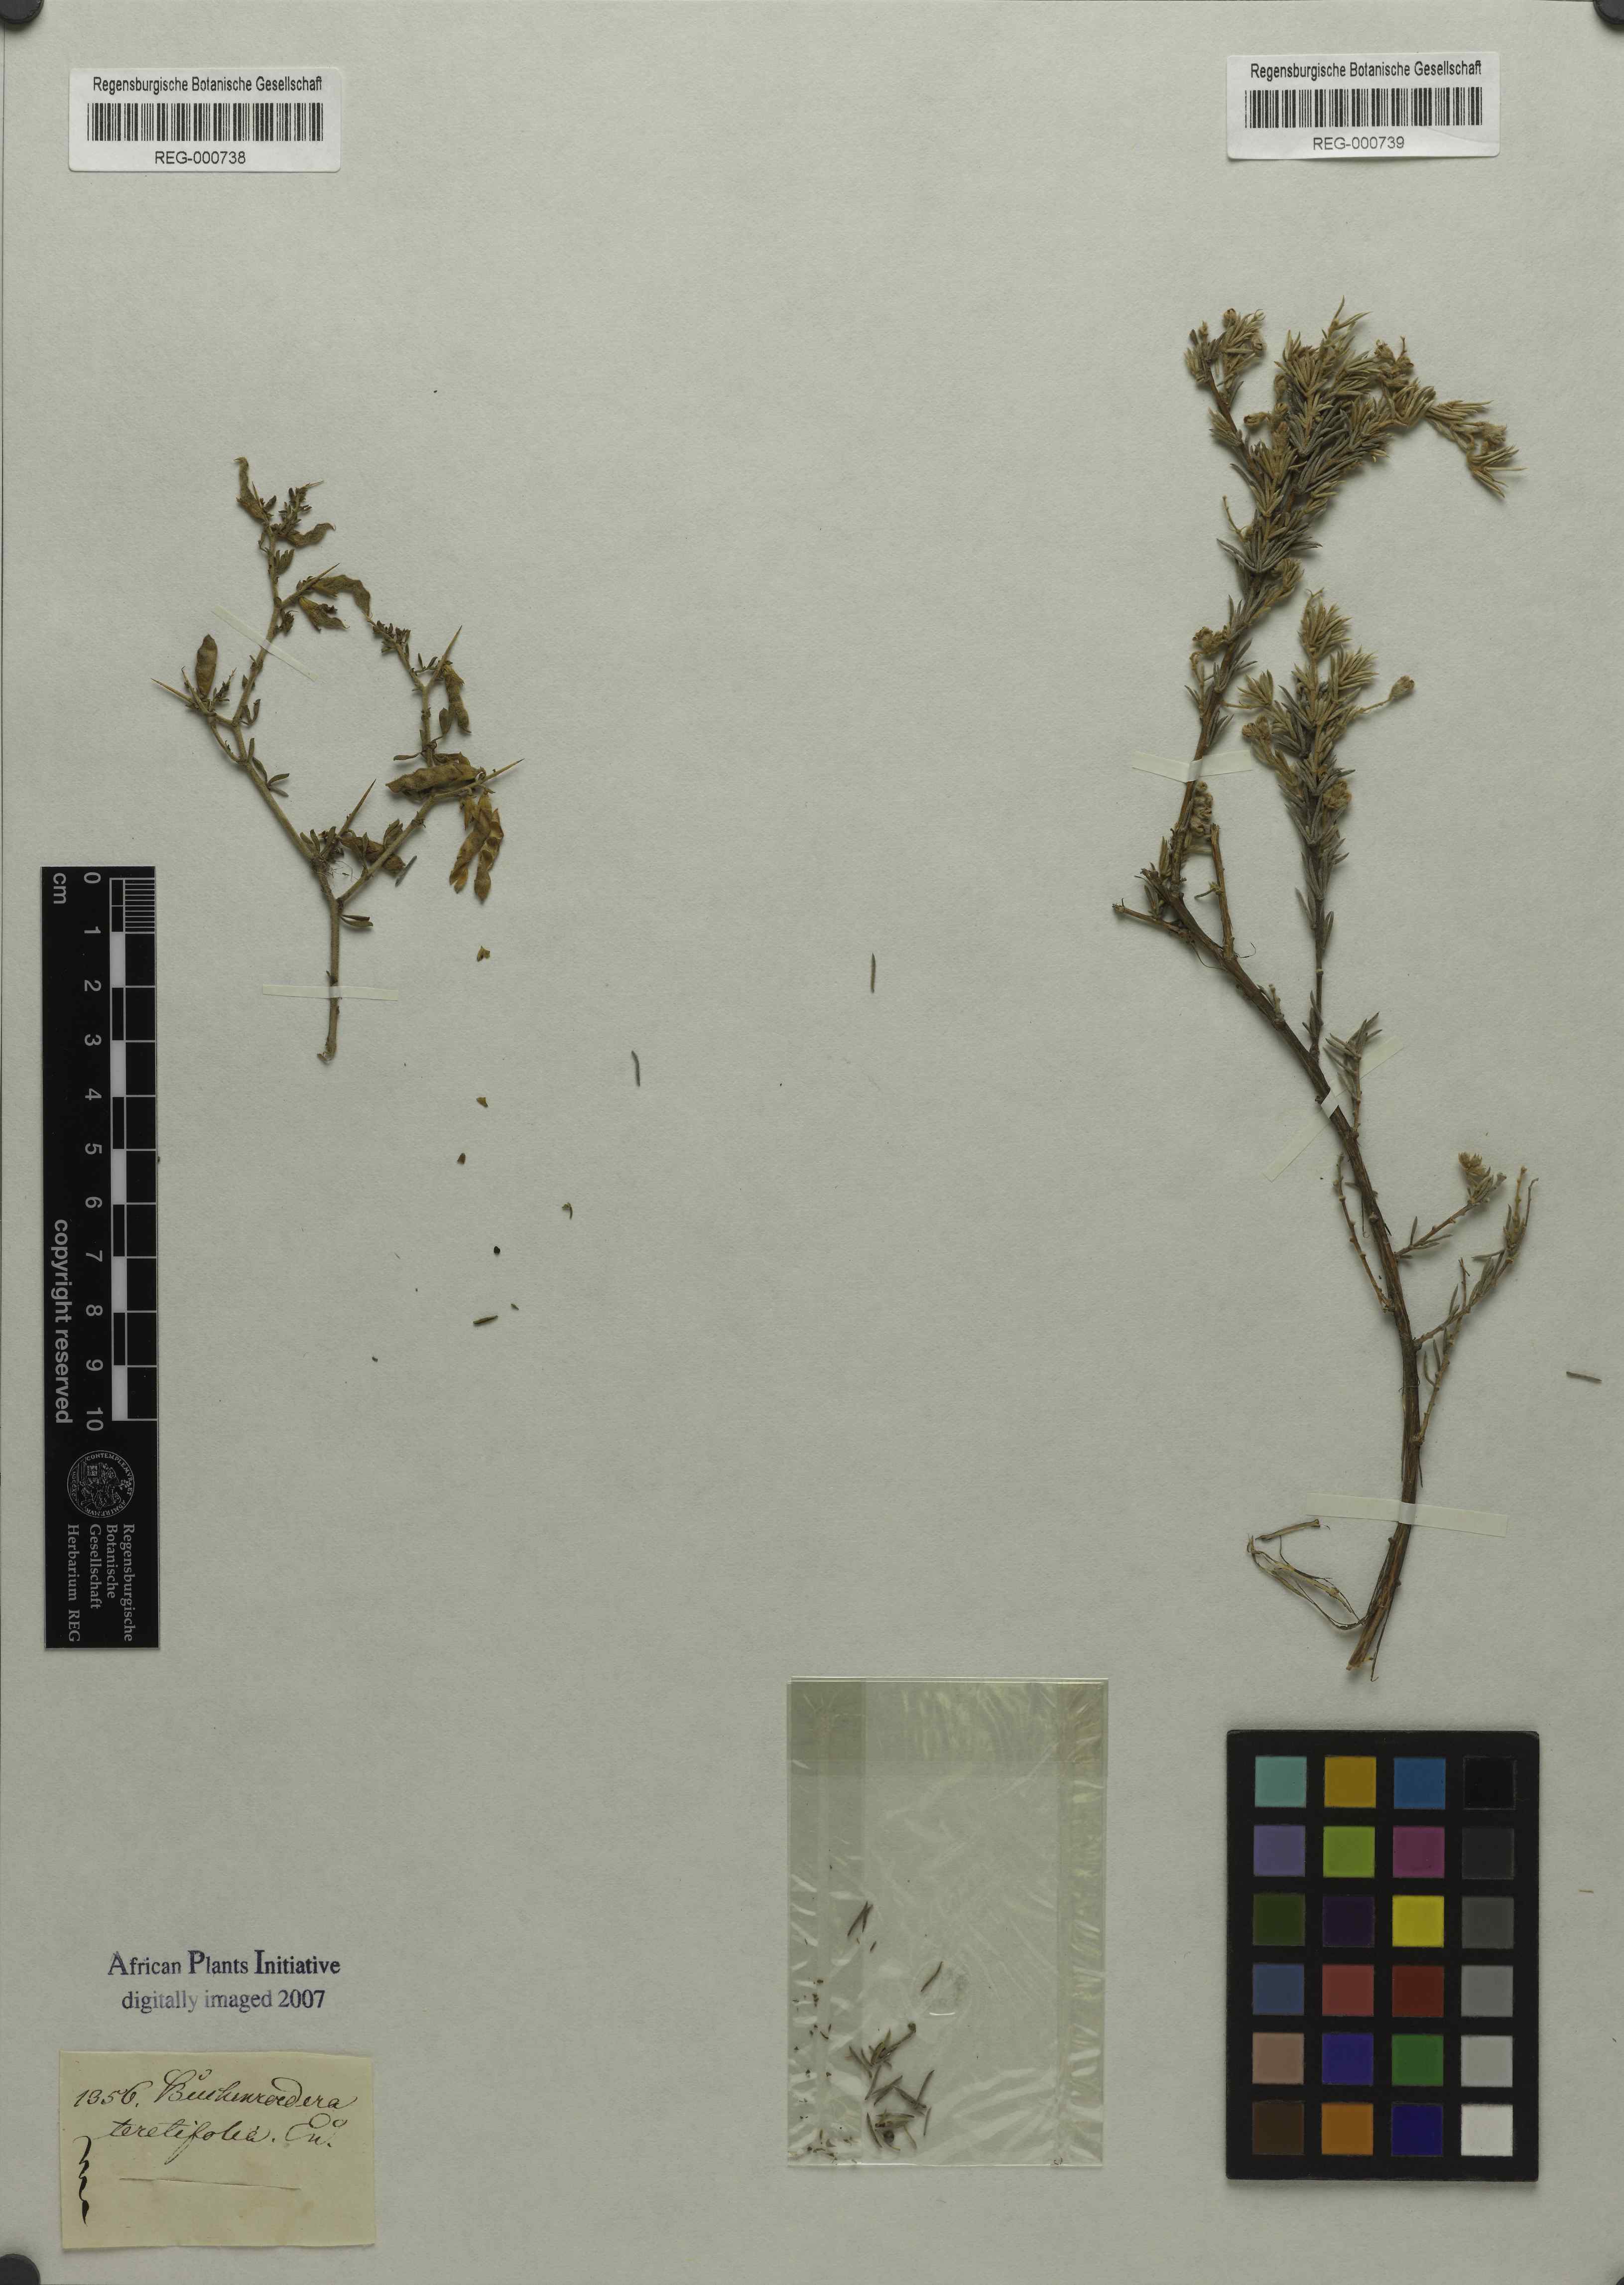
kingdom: Plantae
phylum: Tracheophyta
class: Magnoliopsida
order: Fabales
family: Fabaceae
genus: Aspalathus
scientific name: Aspalathus albens
